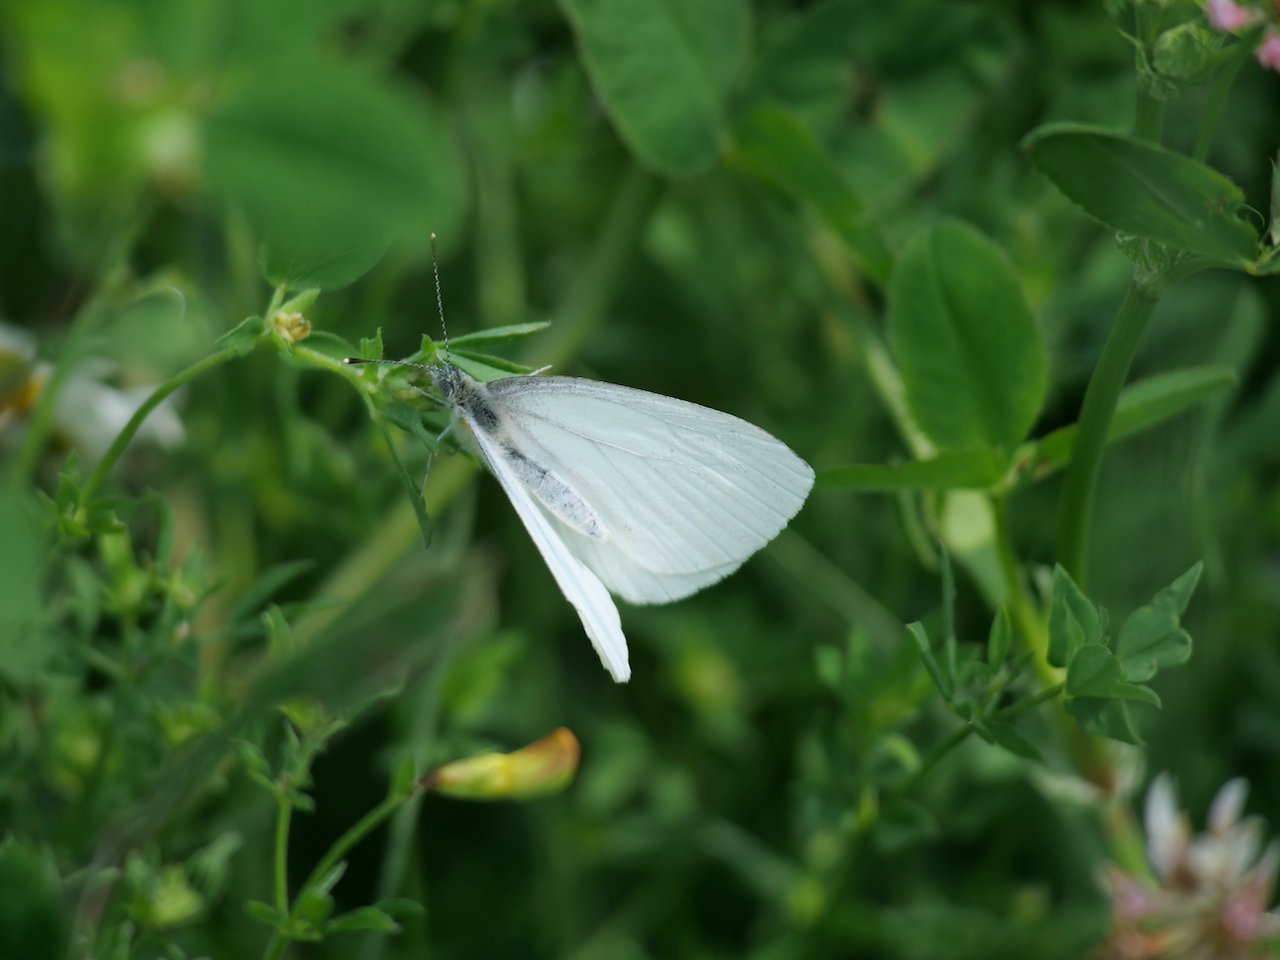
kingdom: Animalia
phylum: Arthropoda
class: Insecta
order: Lepidoptera
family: Pieridae
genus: Pieris
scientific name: Pieris oleracea
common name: Mustard White
